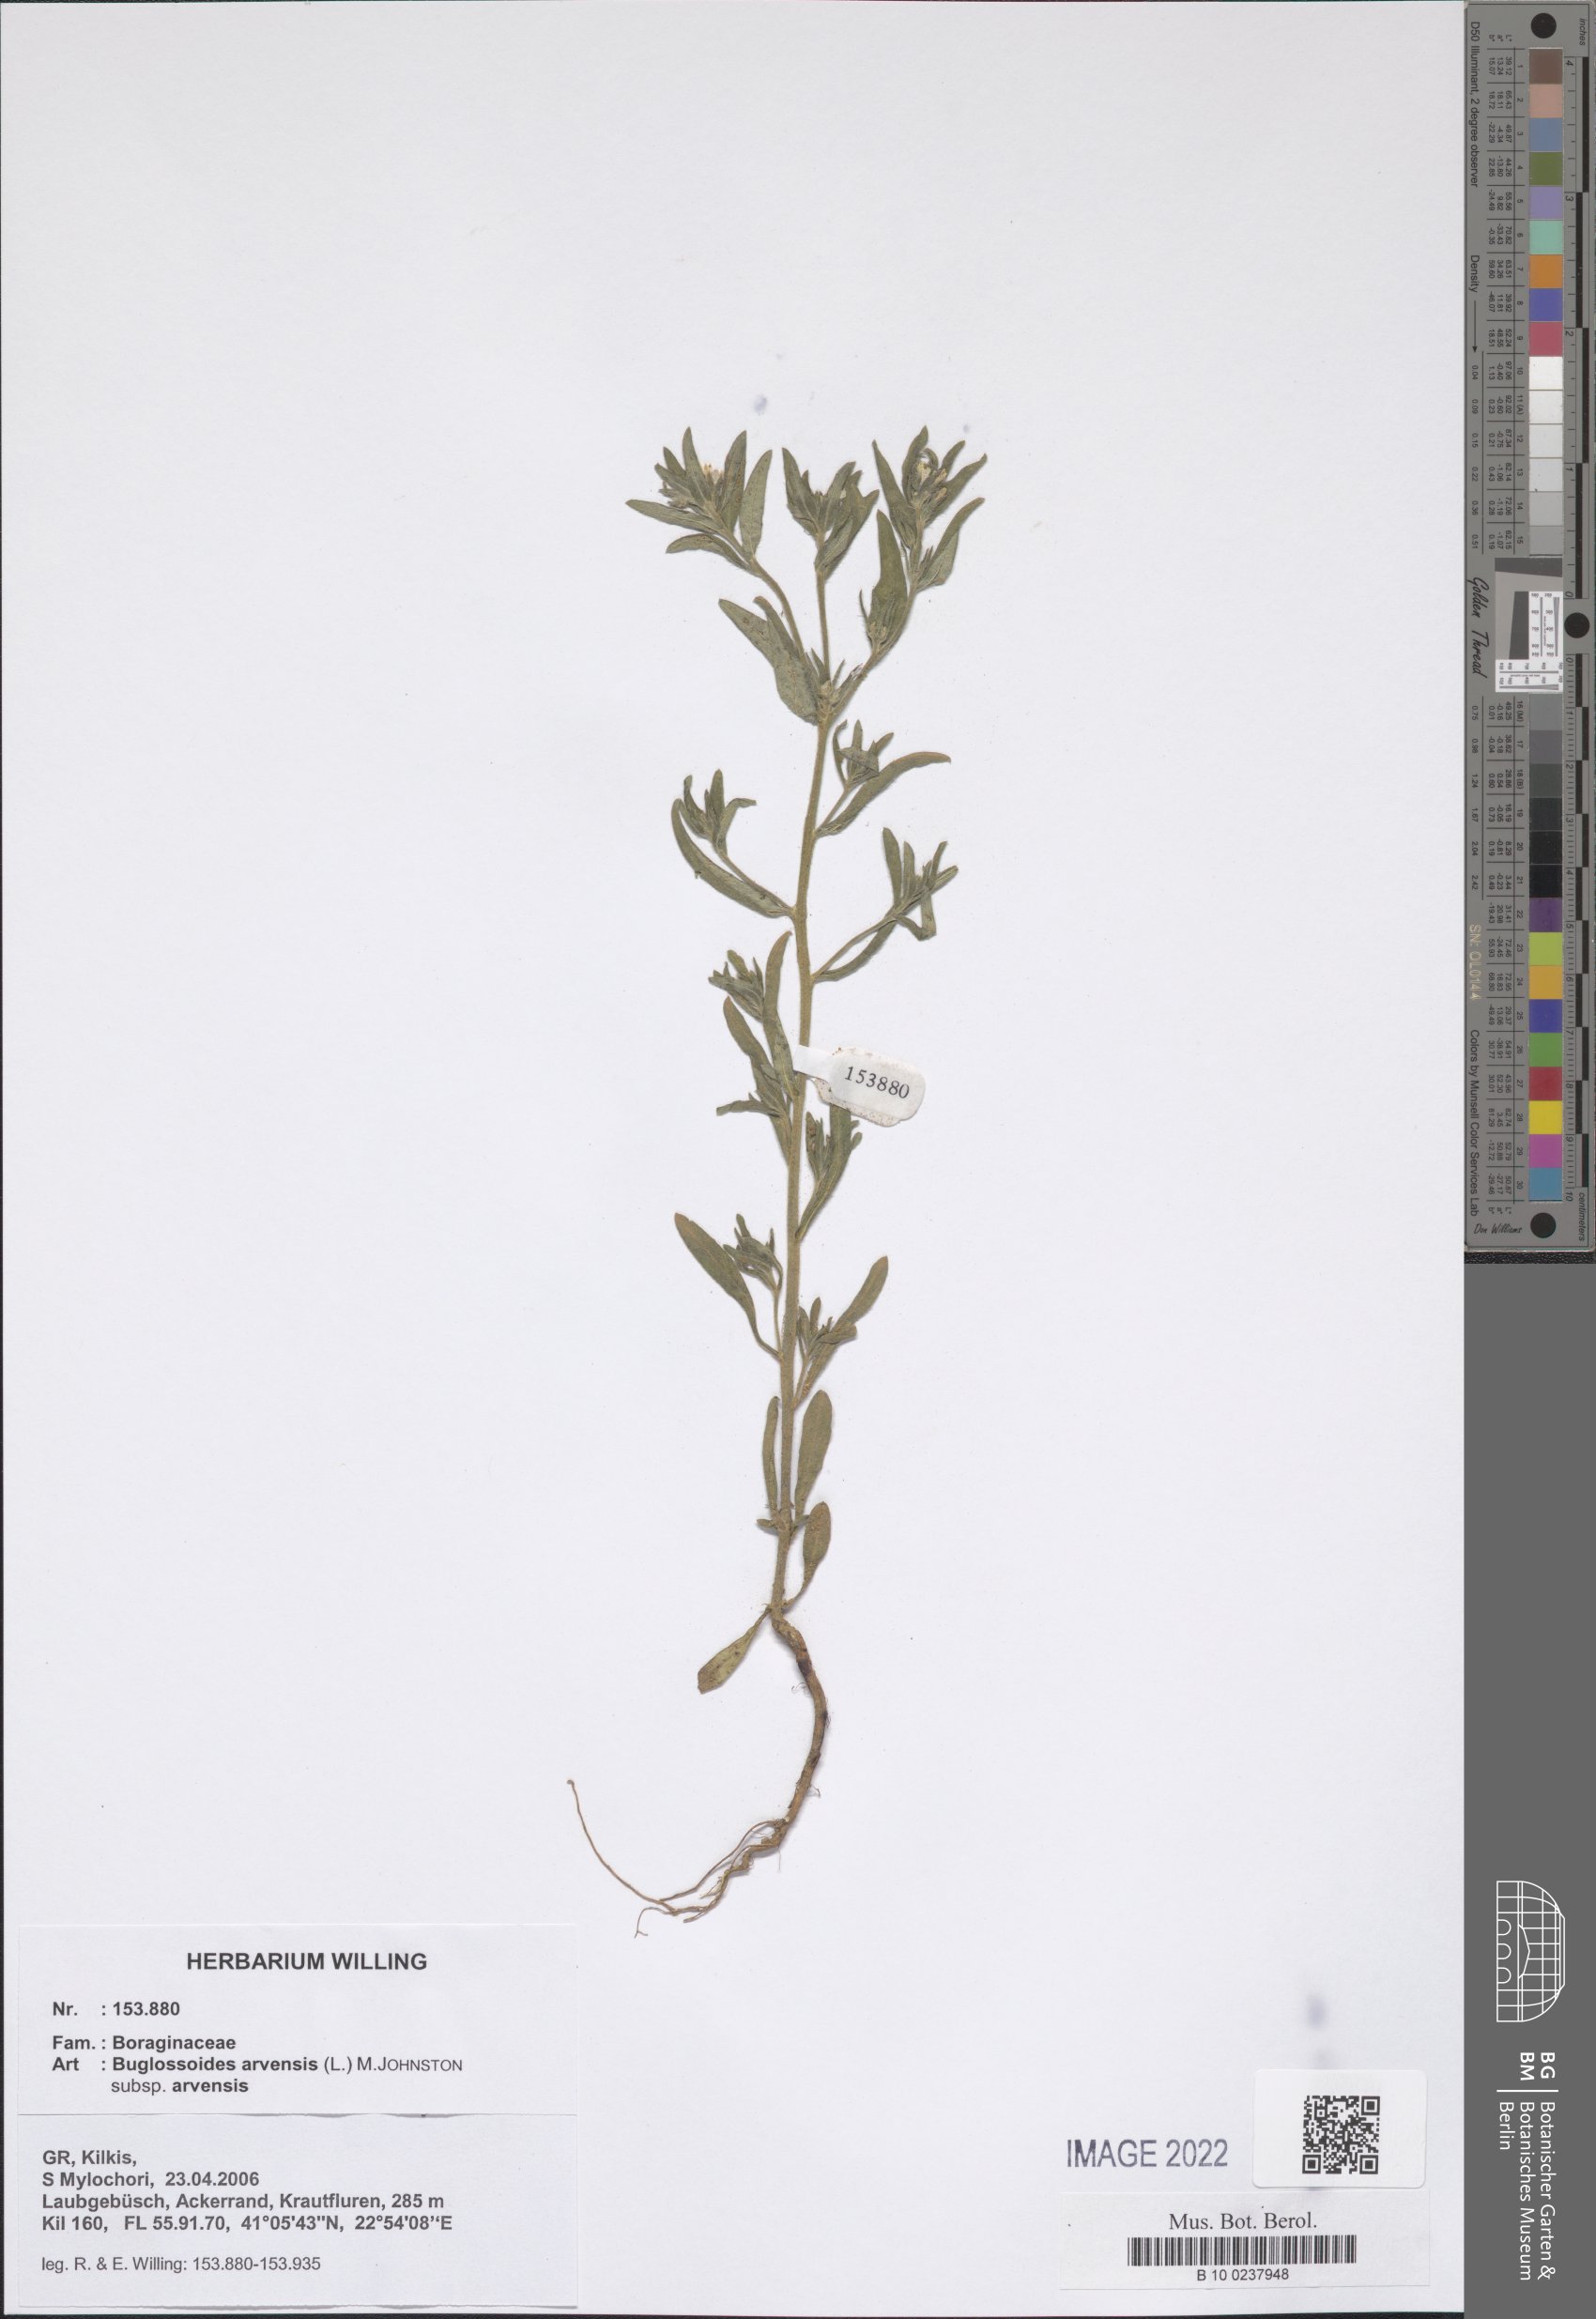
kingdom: Plantae
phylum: Tracheophyta
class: Magnoliopsida
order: Boraginales
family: Boraginaceae
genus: Buglossoides
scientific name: Buglossoides arvensis
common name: Corn gromwell
